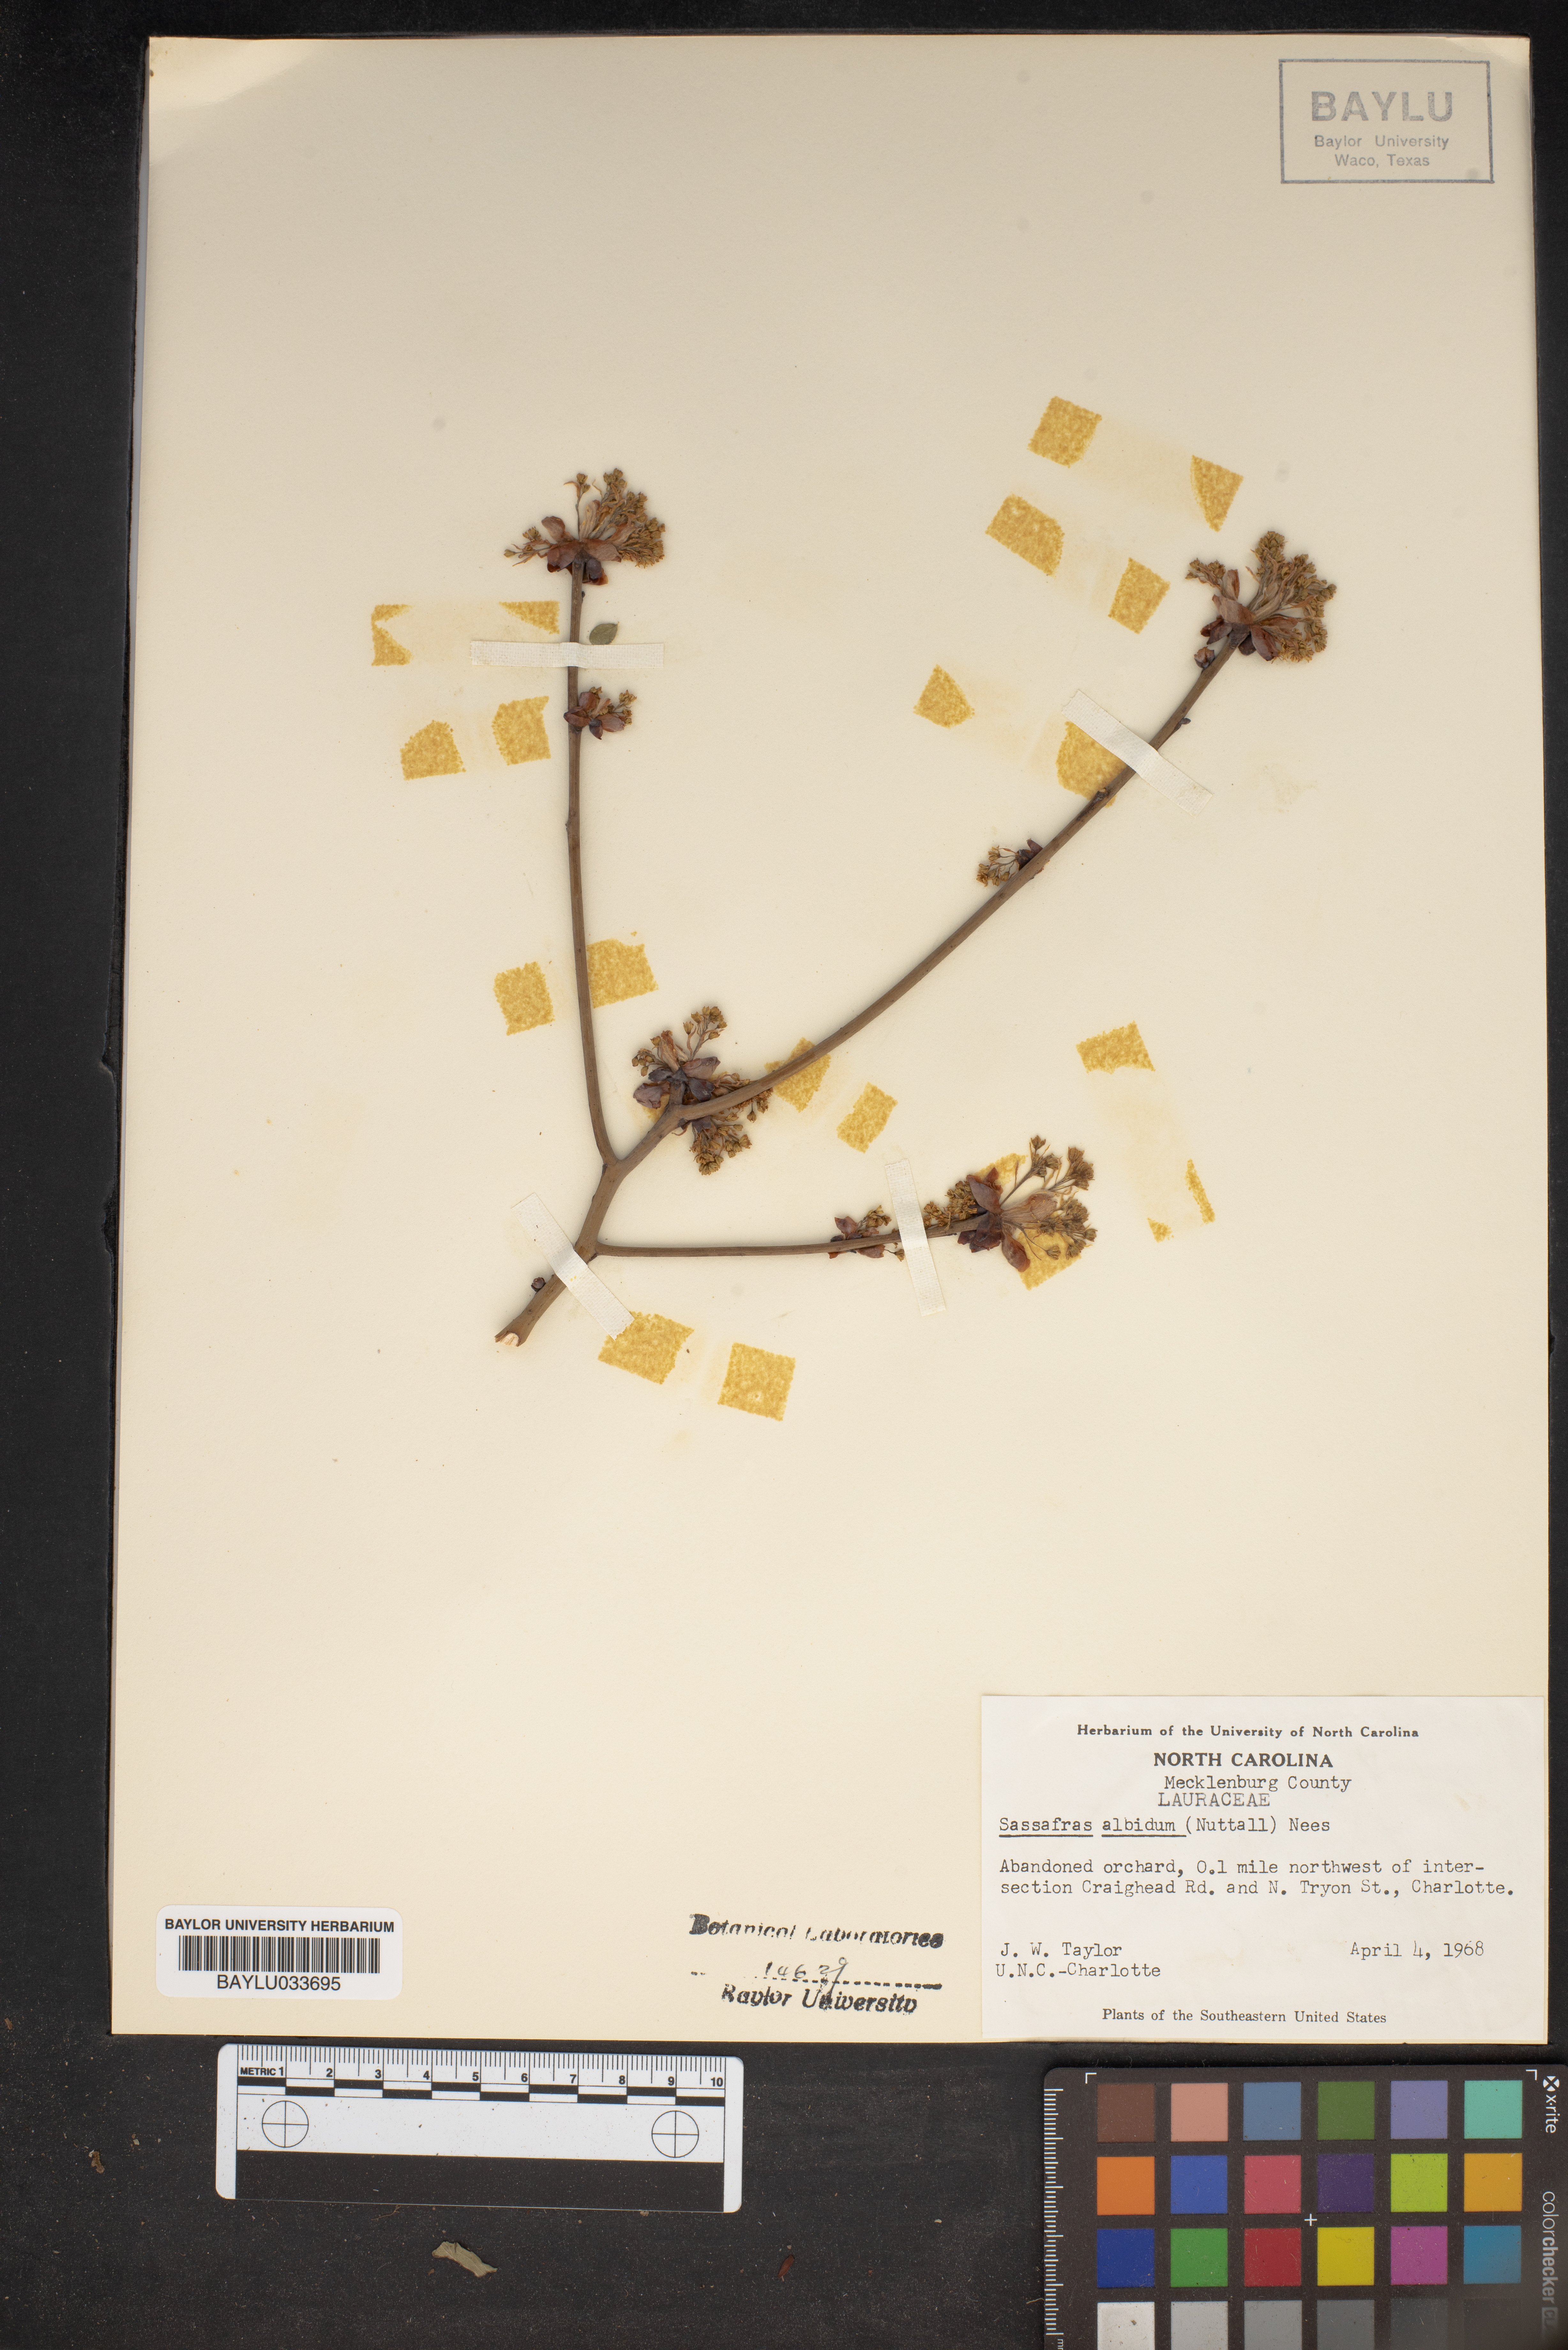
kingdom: Plantae
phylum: Tracheophyta
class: Magnoliopsida
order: Laurales
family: Lauraceae
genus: Sassafras
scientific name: Sassafras albidum
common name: Sassafras
